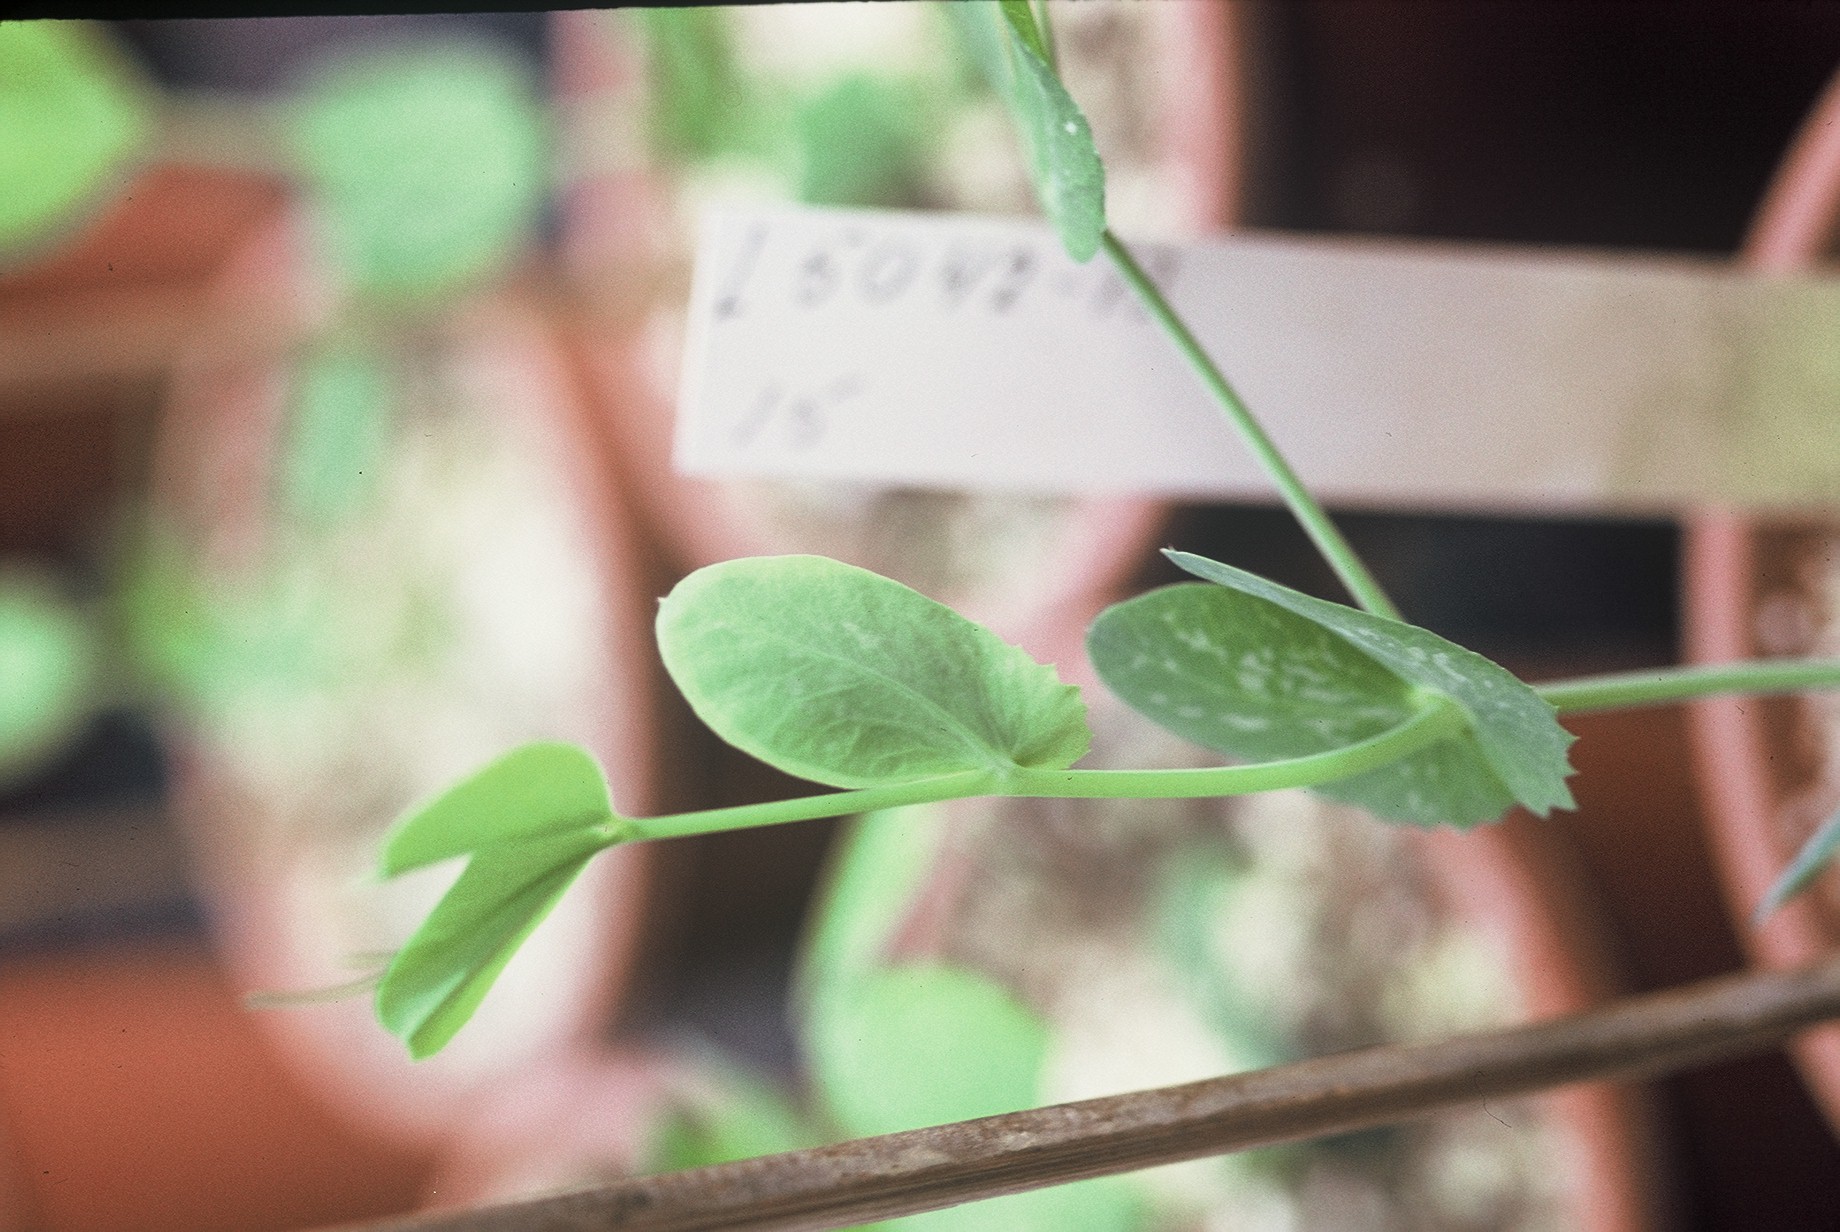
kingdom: Plantae
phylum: Tracheophyta
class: Magnoliopsida
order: Fabales
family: Fabaceae
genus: Lathyrus
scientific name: Lathyrus oleraceus
